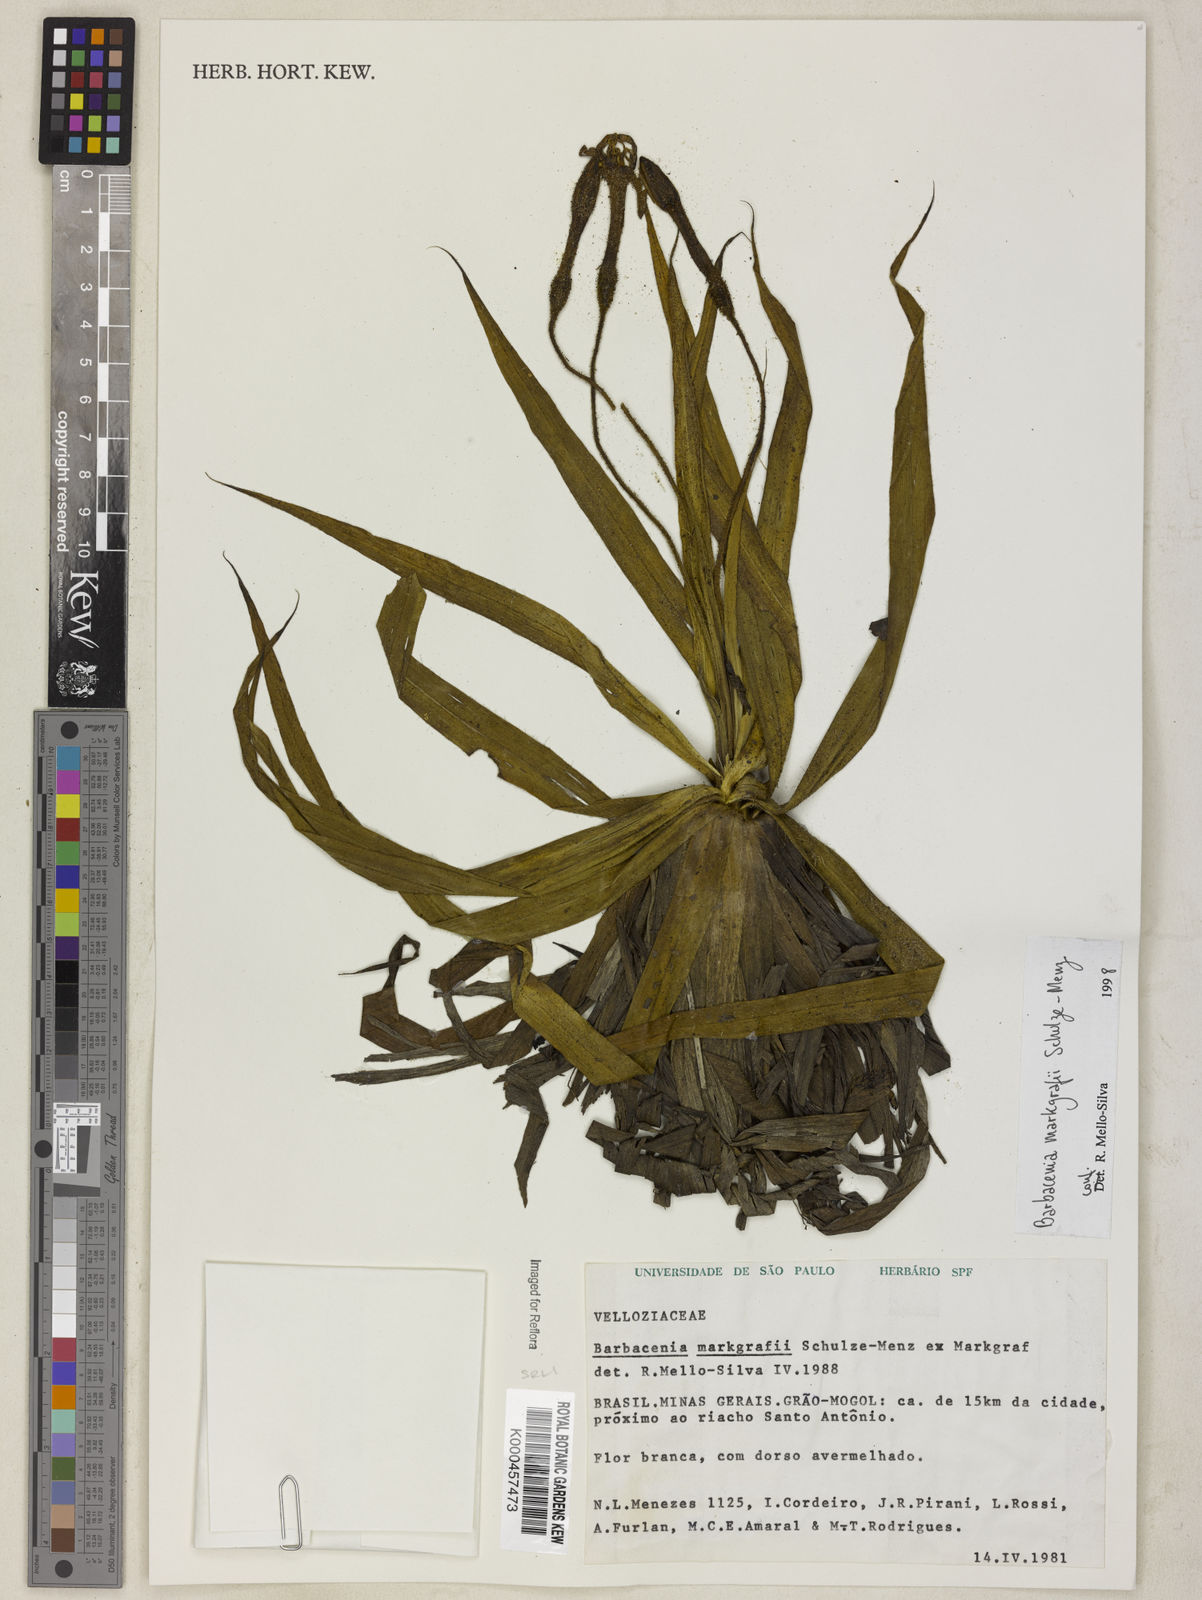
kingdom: Plantae
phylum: Tracheophyta
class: Liliopsida
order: Pandanales
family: Velloziaceae
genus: Barbacenia
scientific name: Barbacenia markgrafii
